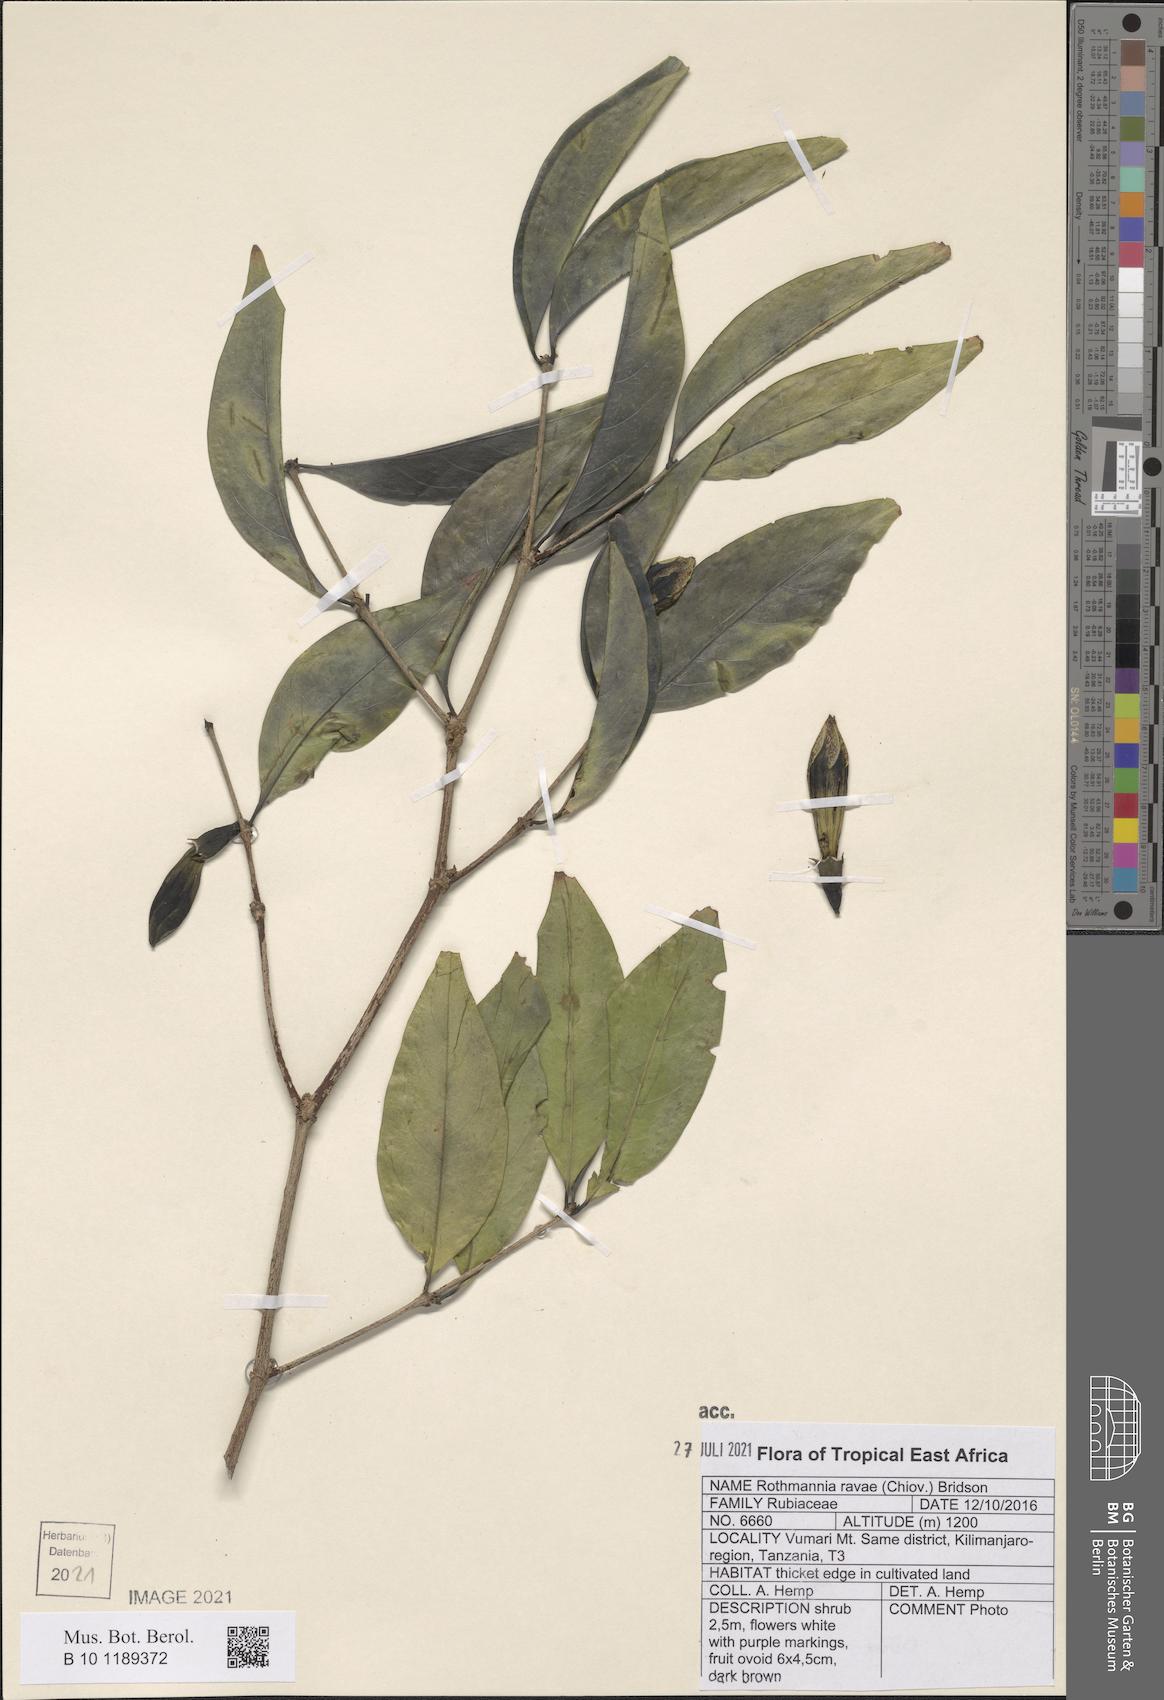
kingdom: Plantae
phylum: Tracheophyta
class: Magnoliopsida
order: Gentianales
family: Rubiaceae
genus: Rothmannia
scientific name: Rothmannia ravae
